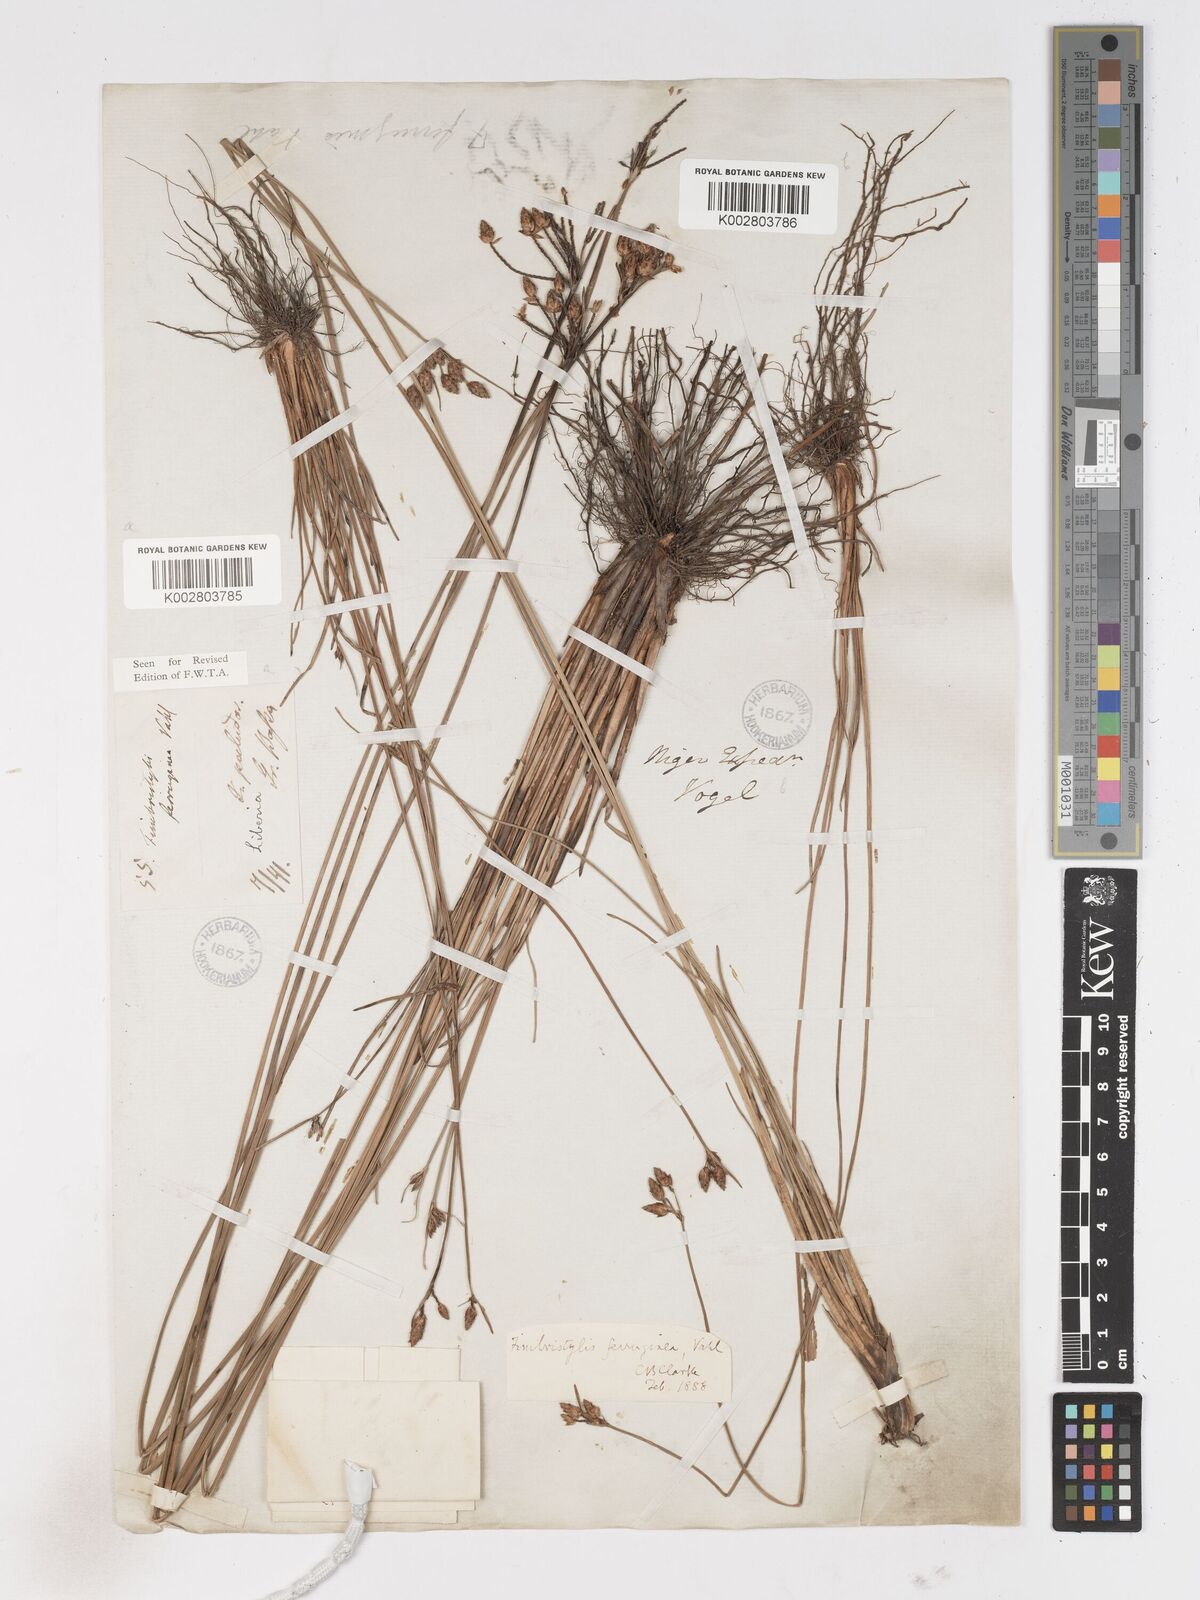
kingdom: Plantae
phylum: Tracheophyta
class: Liliopsida
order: Poales
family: Cyperaceae
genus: Fimbristylis
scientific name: Fimbristylis ferruginea
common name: West indian fimbry
